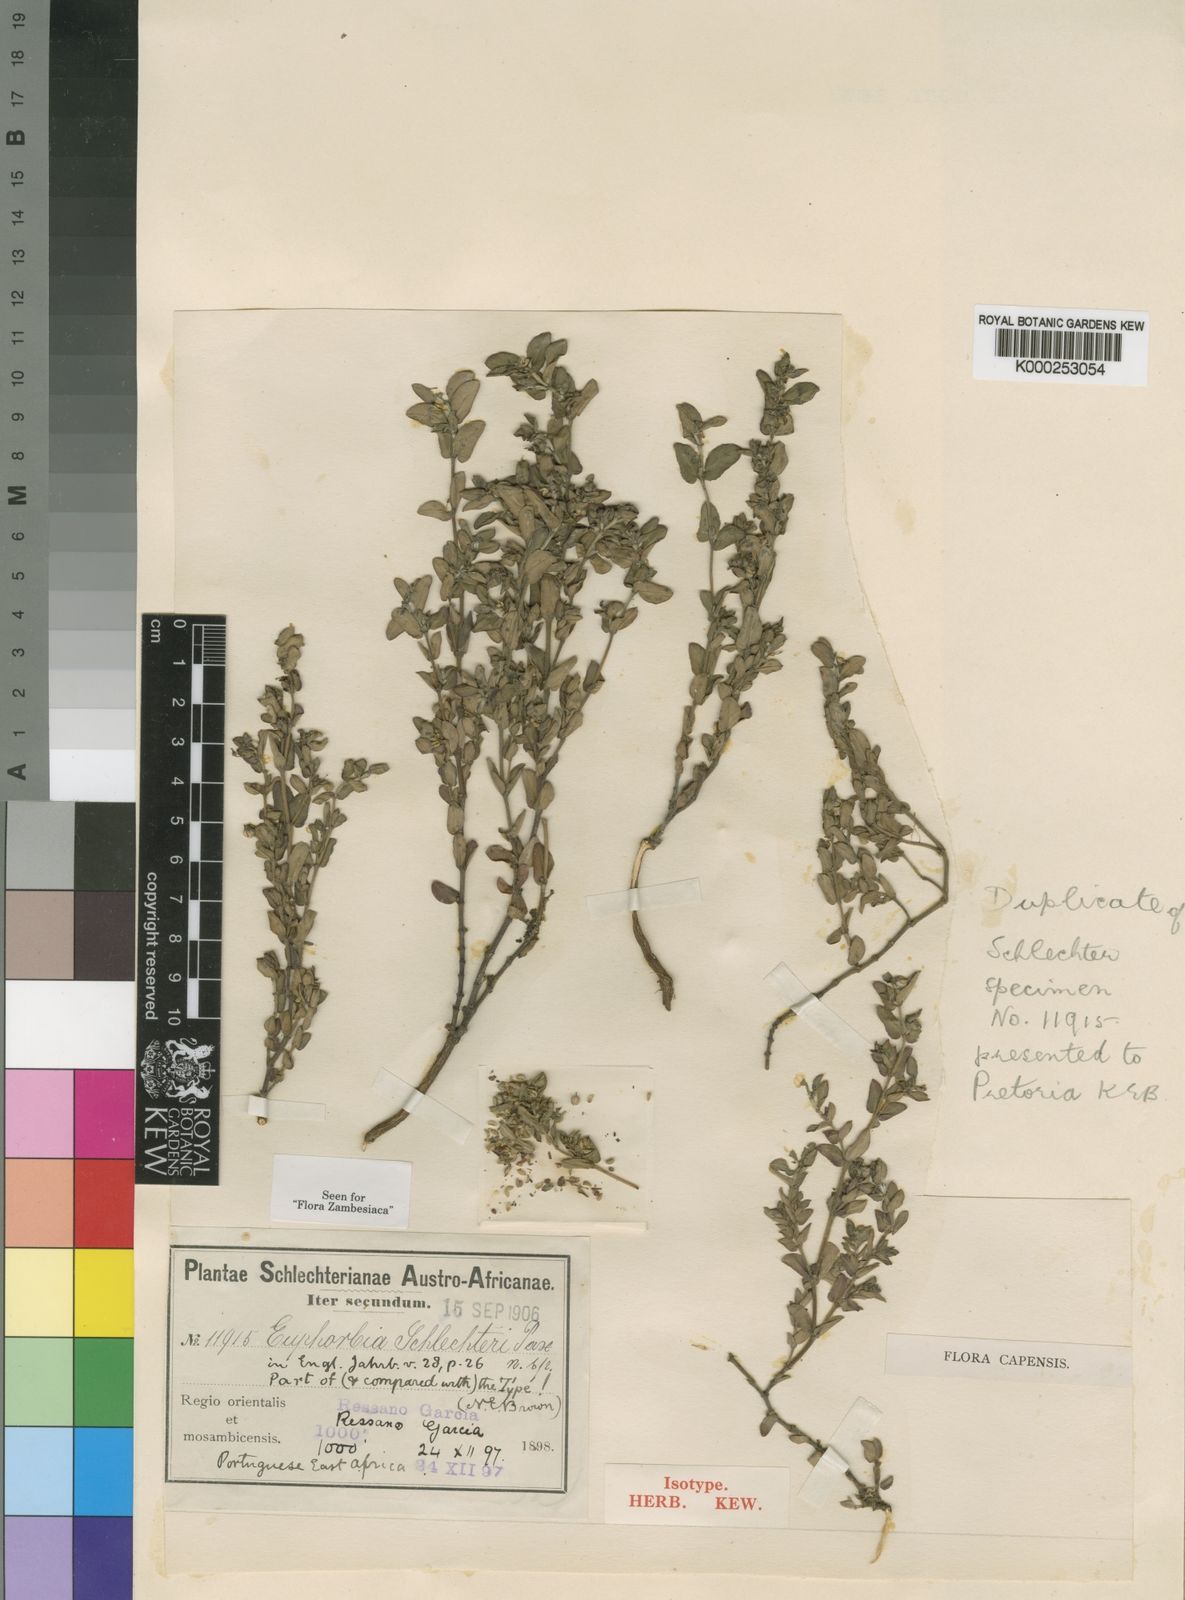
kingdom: Plantae
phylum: Tracheophyta
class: Magnoliopsida
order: Malpighiales
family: Euphorbiaceae
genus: Euphorbia
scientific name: Euphorbia schlechteri
